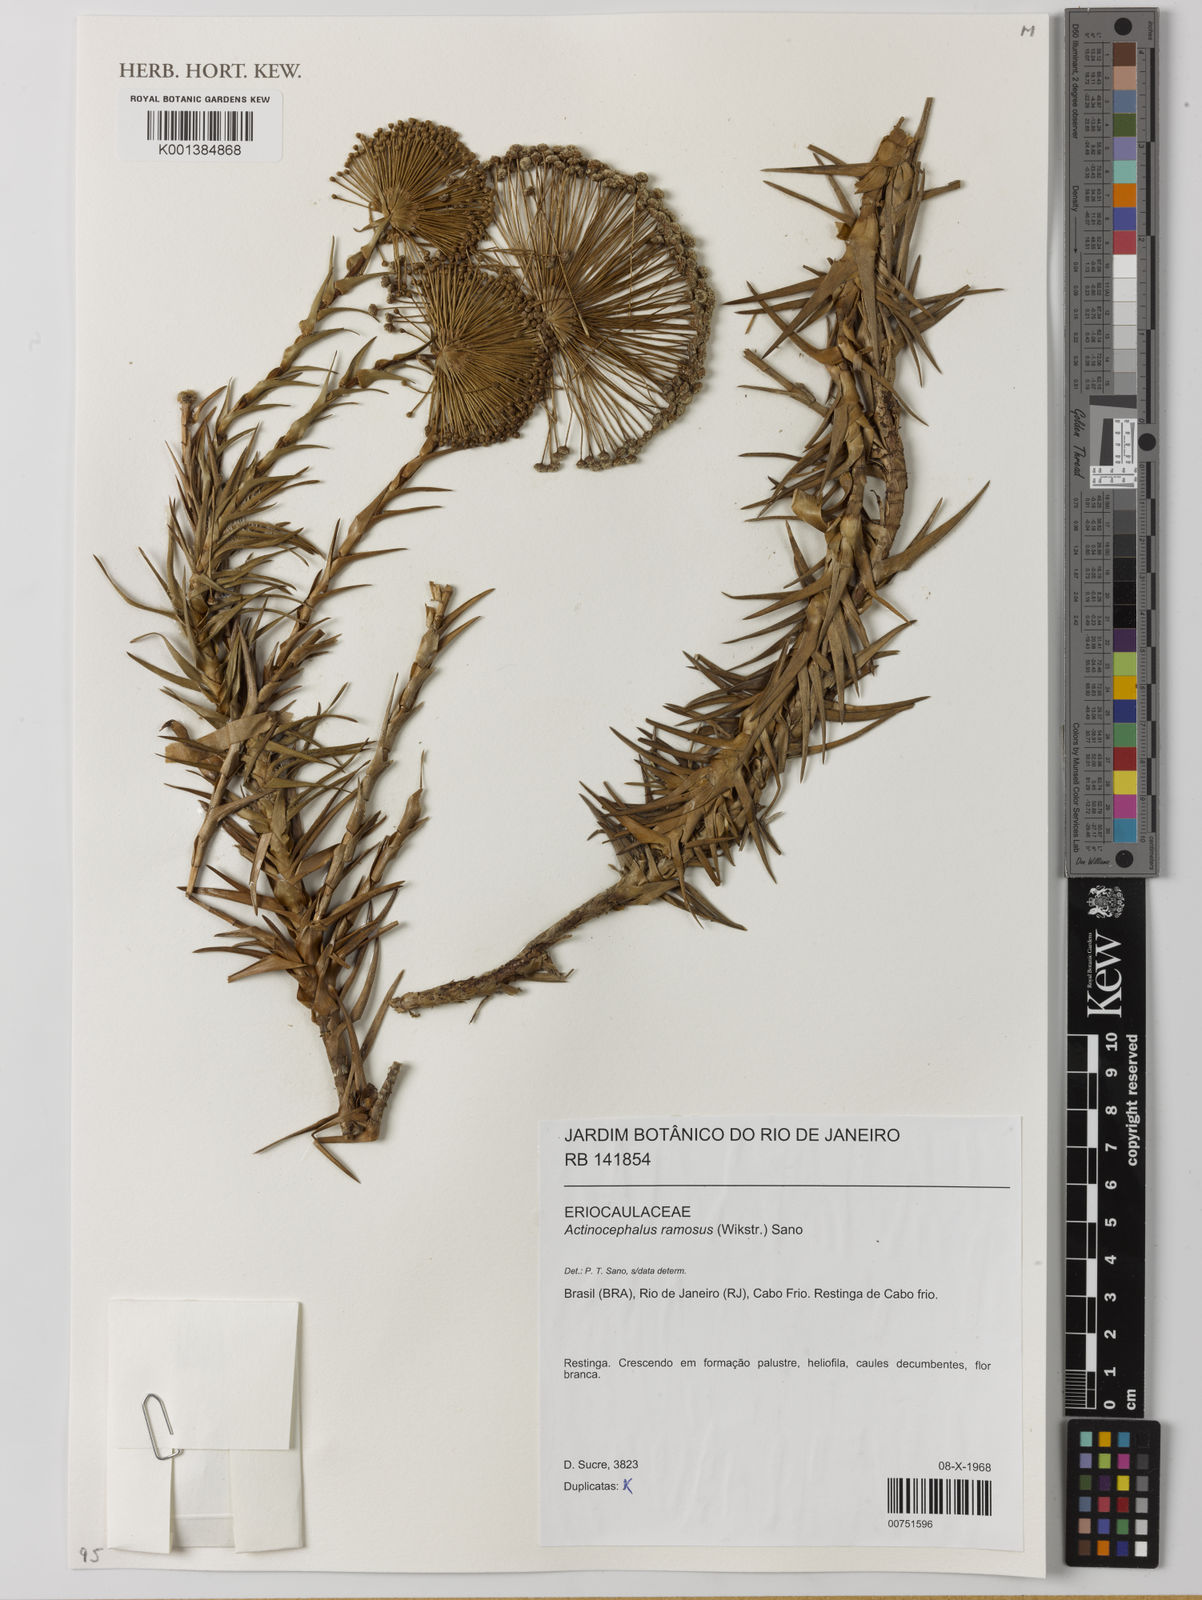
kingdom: Plantae
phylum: Tracheophyta
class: Liliopsida
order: Poales
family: Eriocaulaceae
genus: Paepalanthus
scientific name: Paepalanthus ramosus
